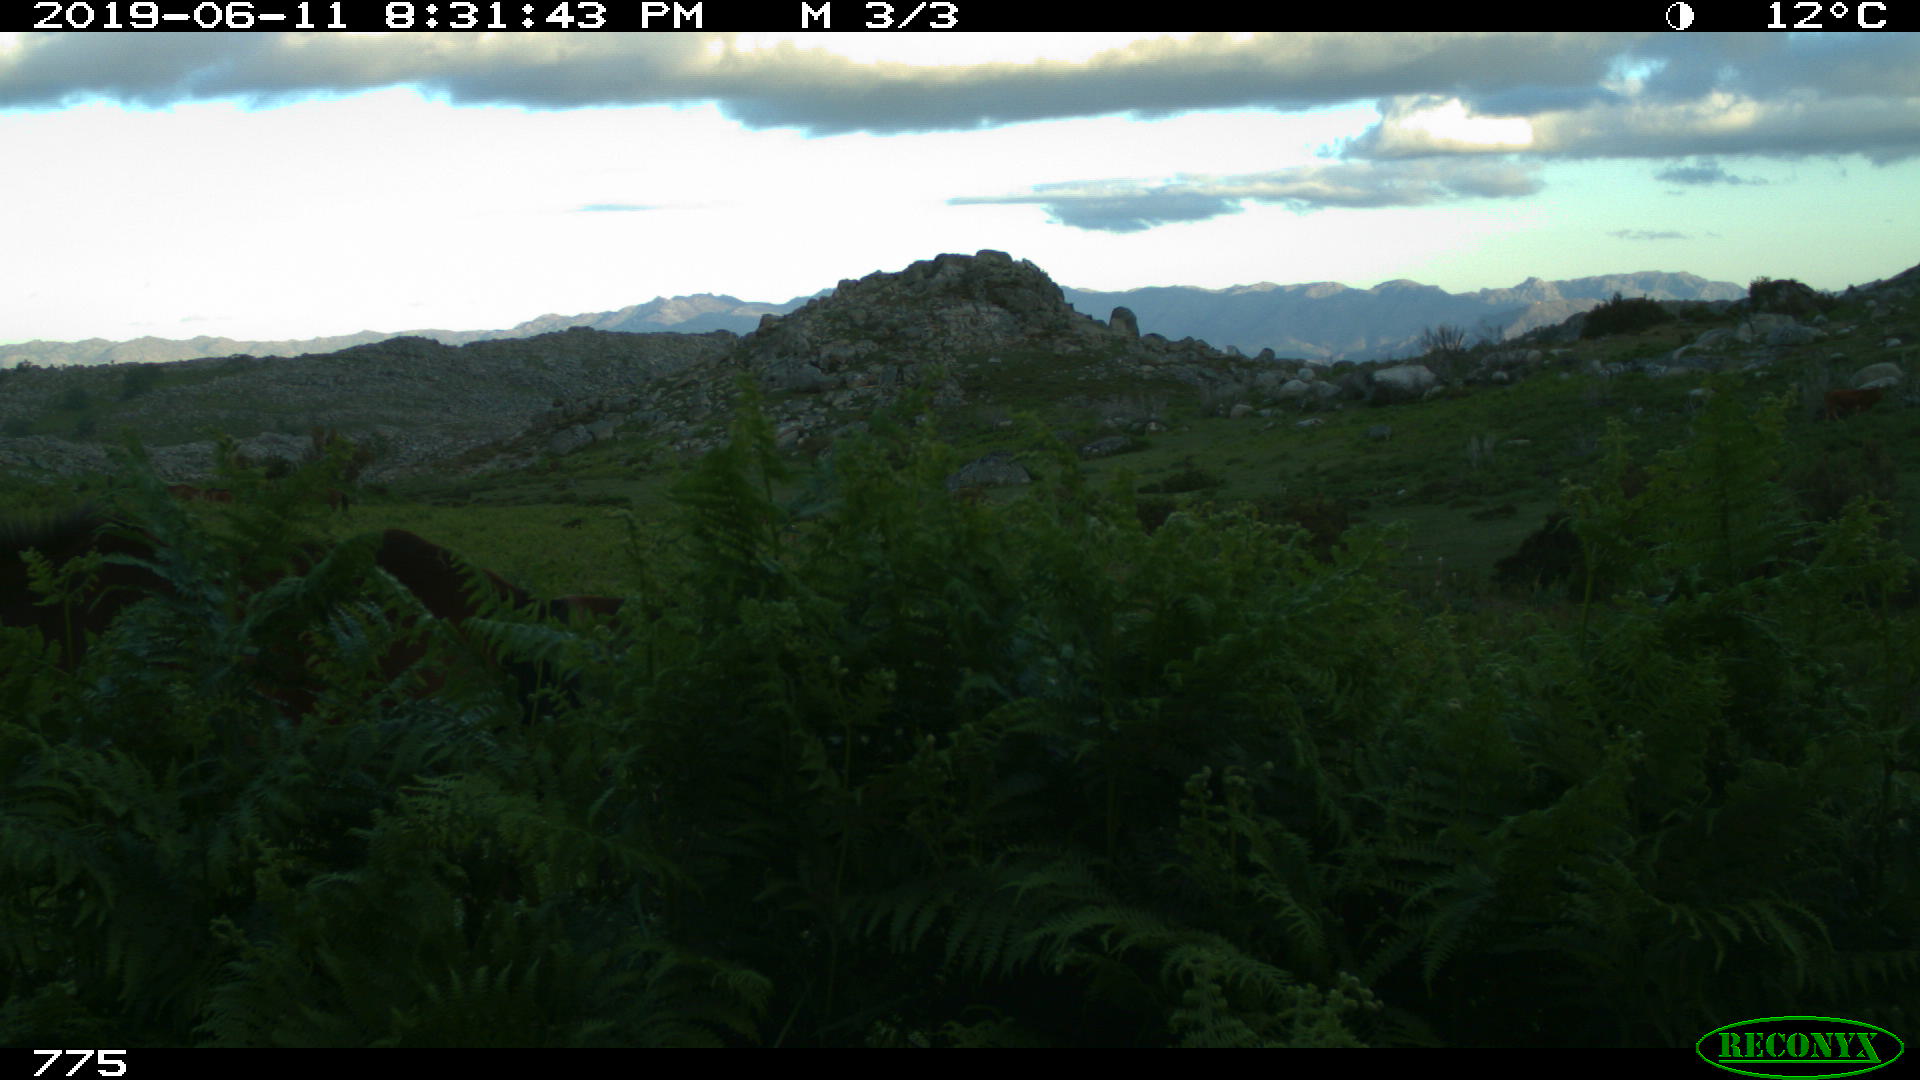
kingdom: Animalia
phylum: Chordata
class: Mammalia
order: Perissodactyla
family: Equidae
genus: Equus
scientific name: Equus caballus
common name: Horse
